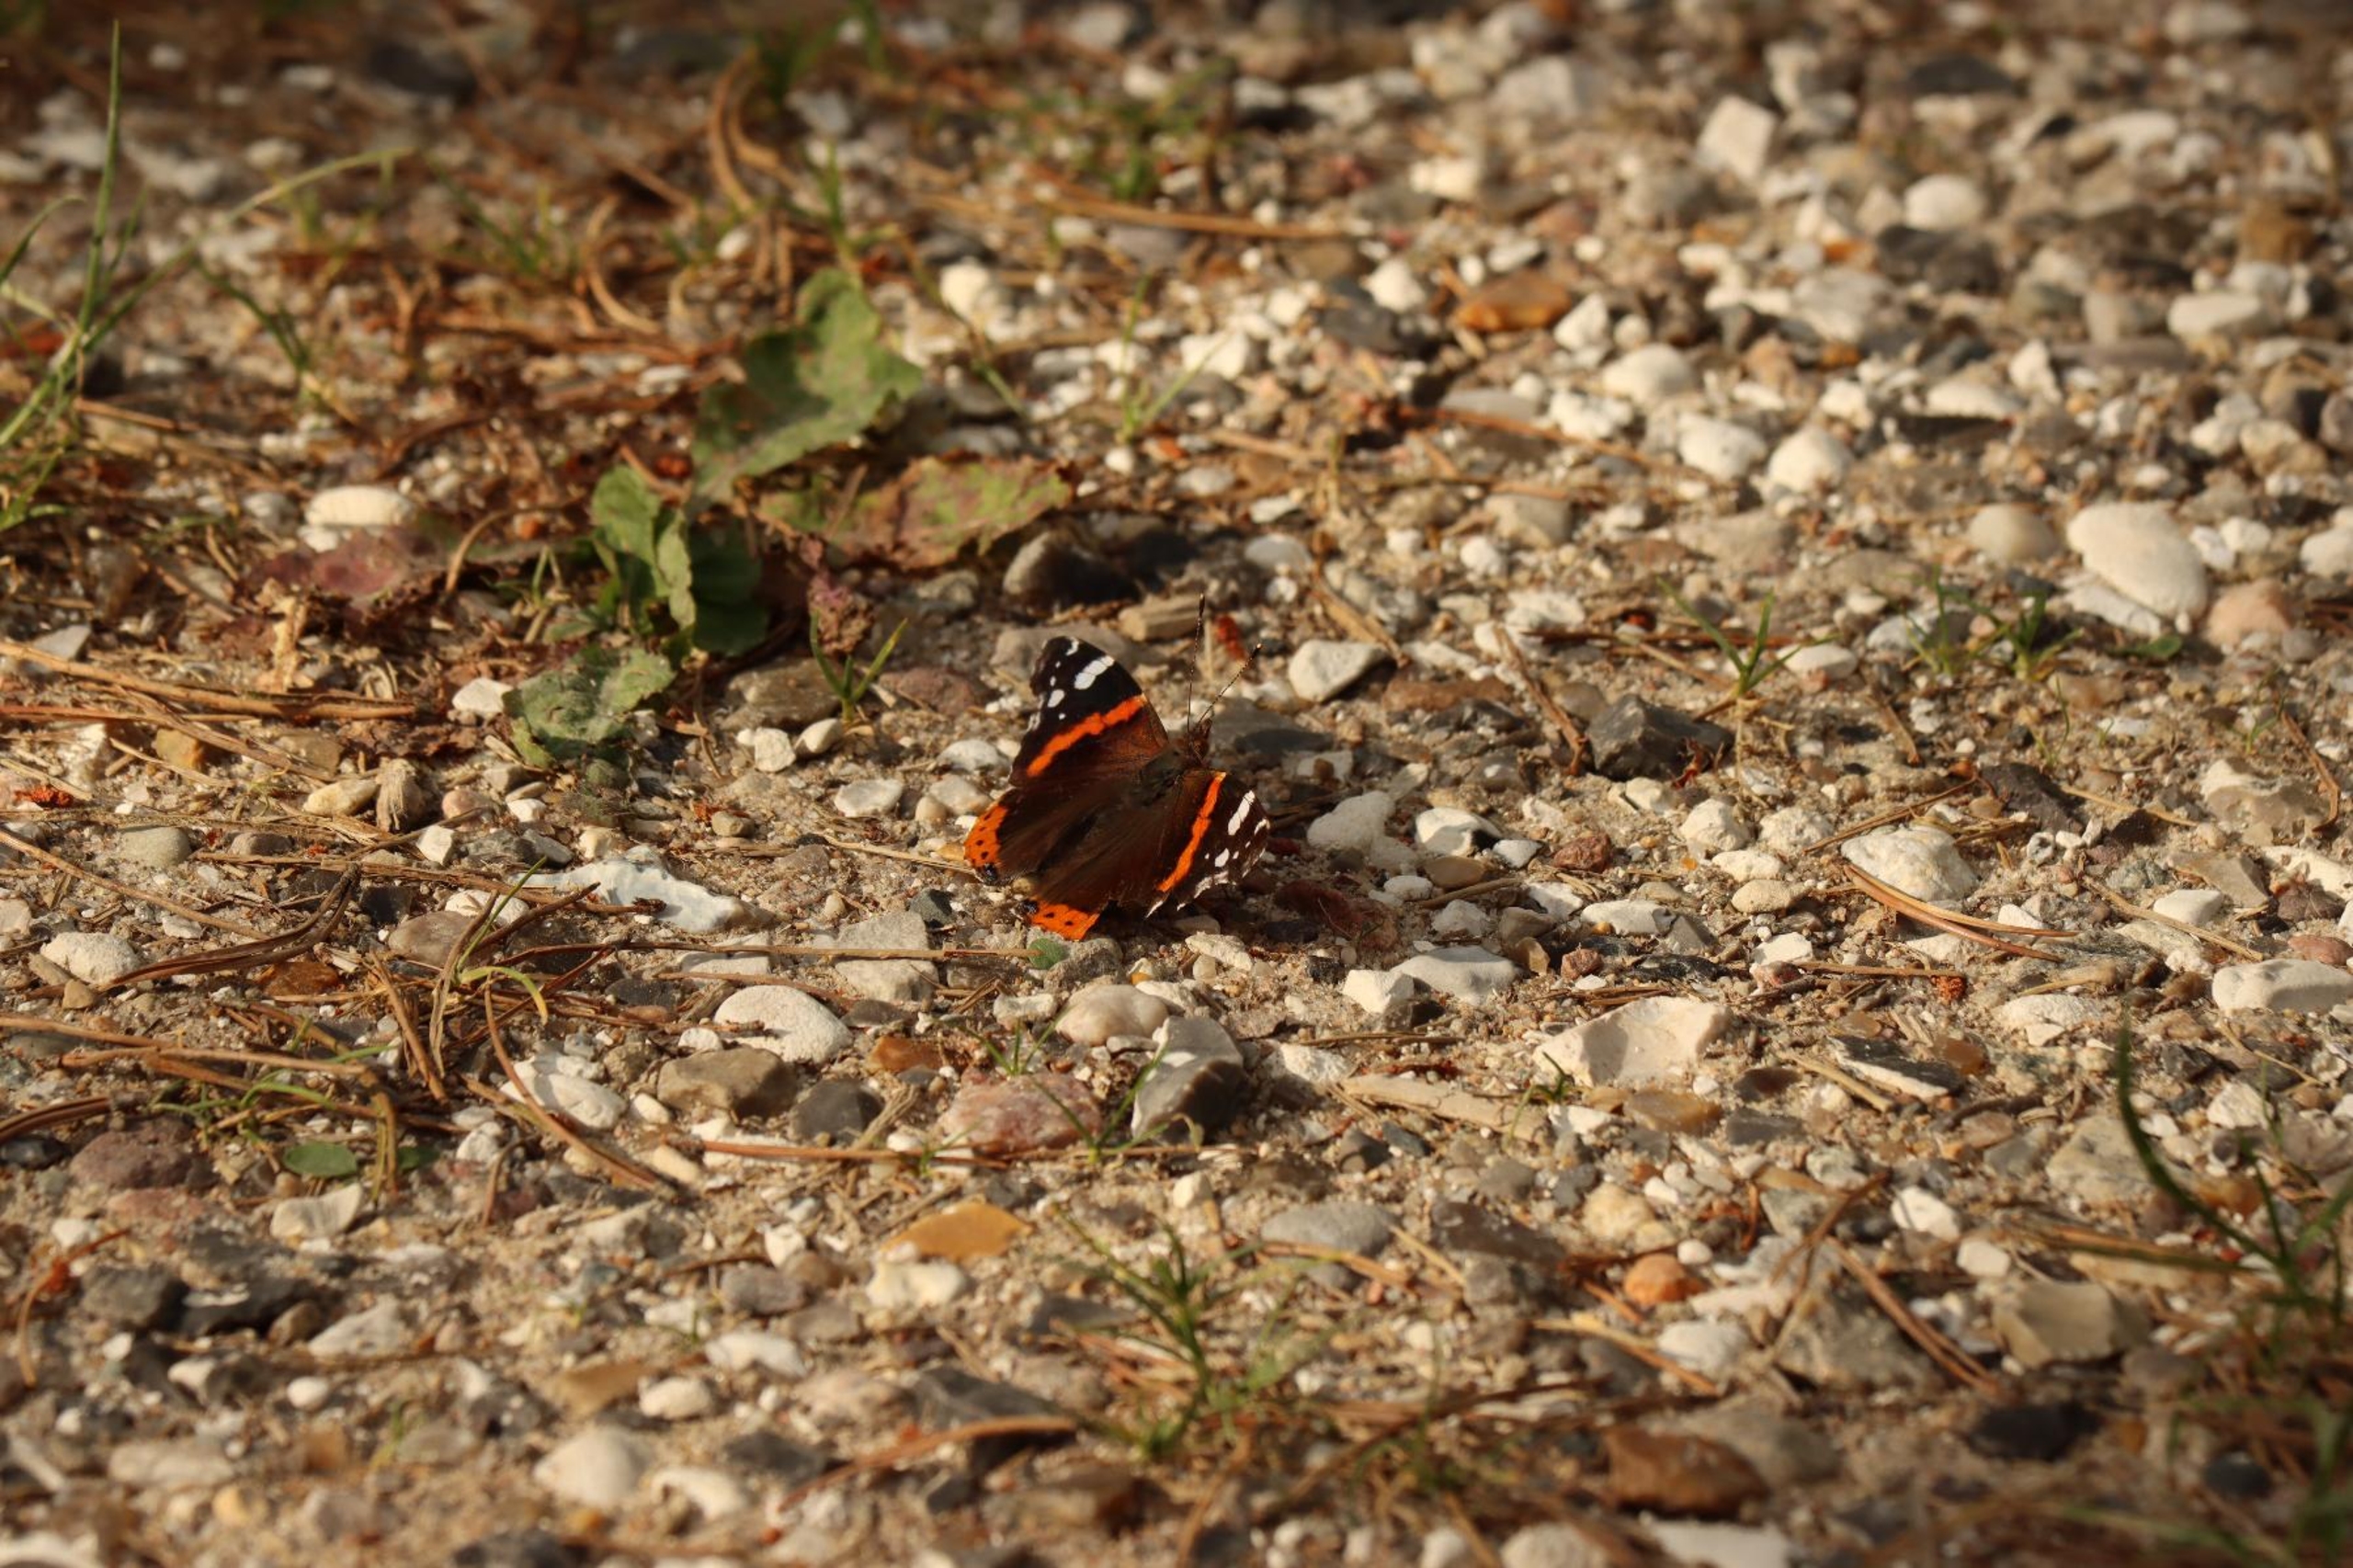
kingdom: Animalia
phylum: Arthropoda
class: Insecta
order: Lepidoptera
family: Nymphalidae
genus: Vanessa
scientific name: Vanessa atalanta
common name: Admiral
